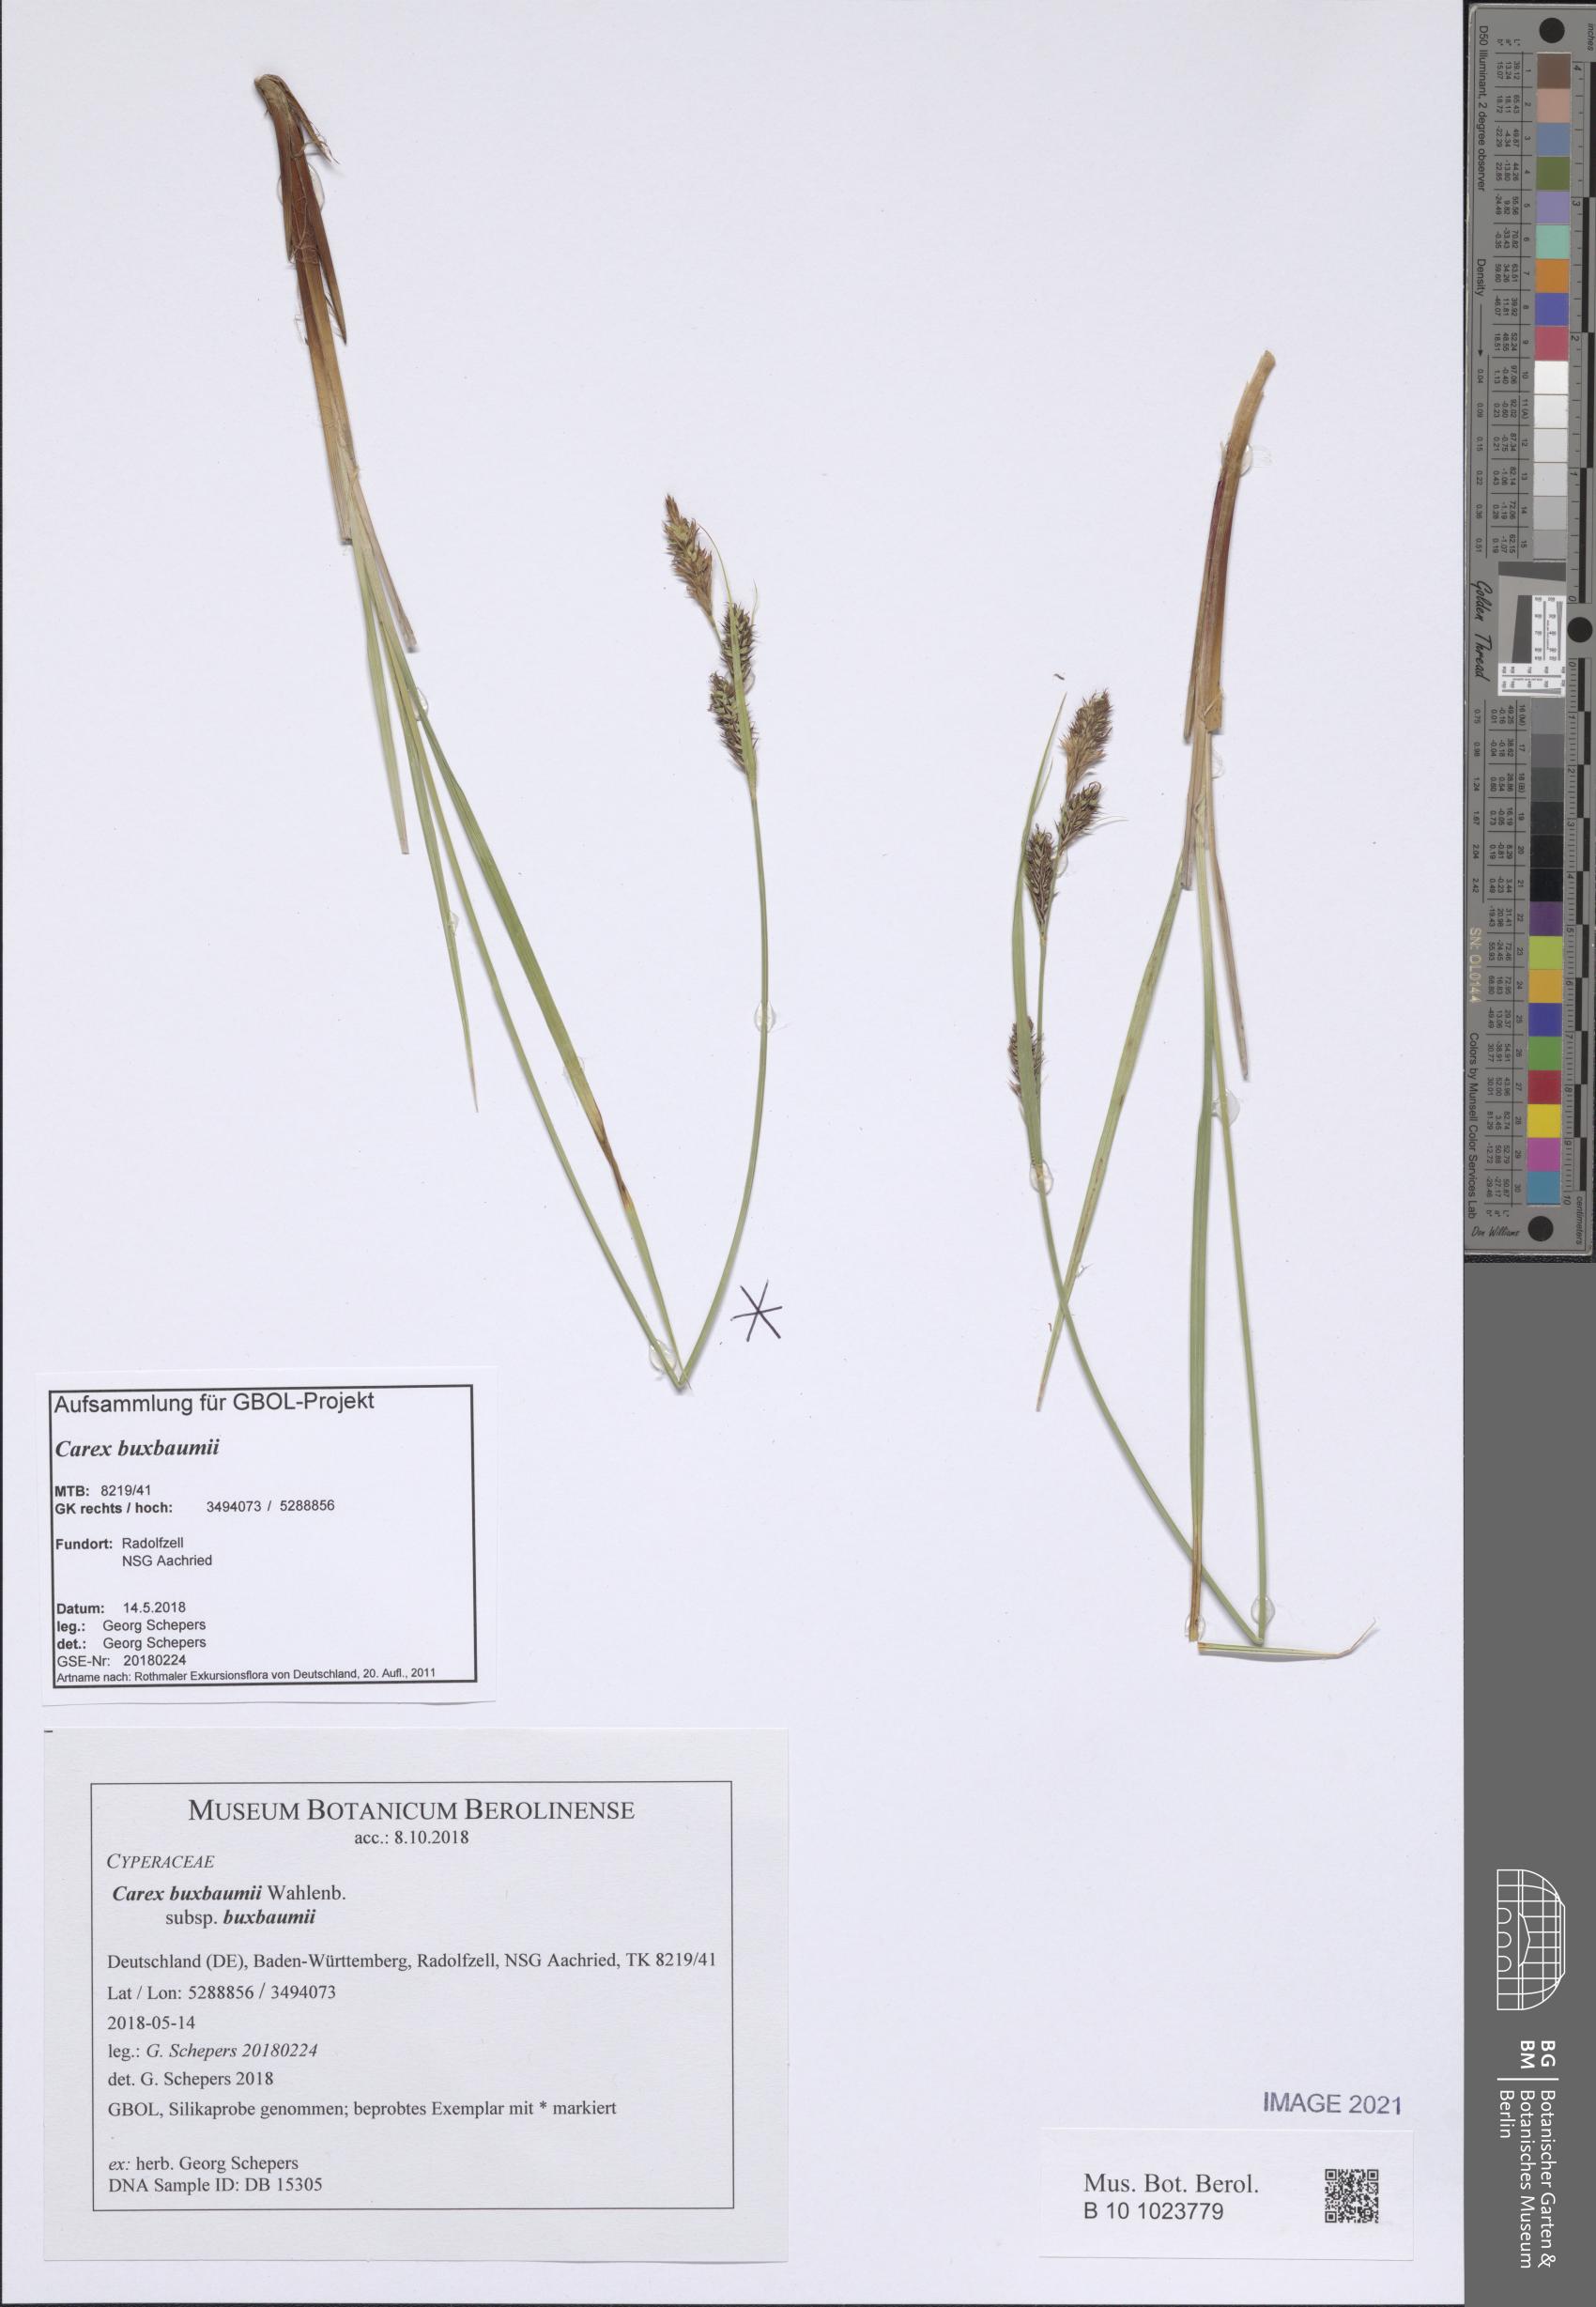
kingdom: Plantae
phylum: Tracheophyta
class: Liliopsida
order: Poales
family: Cyperaceae
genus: Carex
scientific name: Carex buxbaumii
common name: Club sedge
